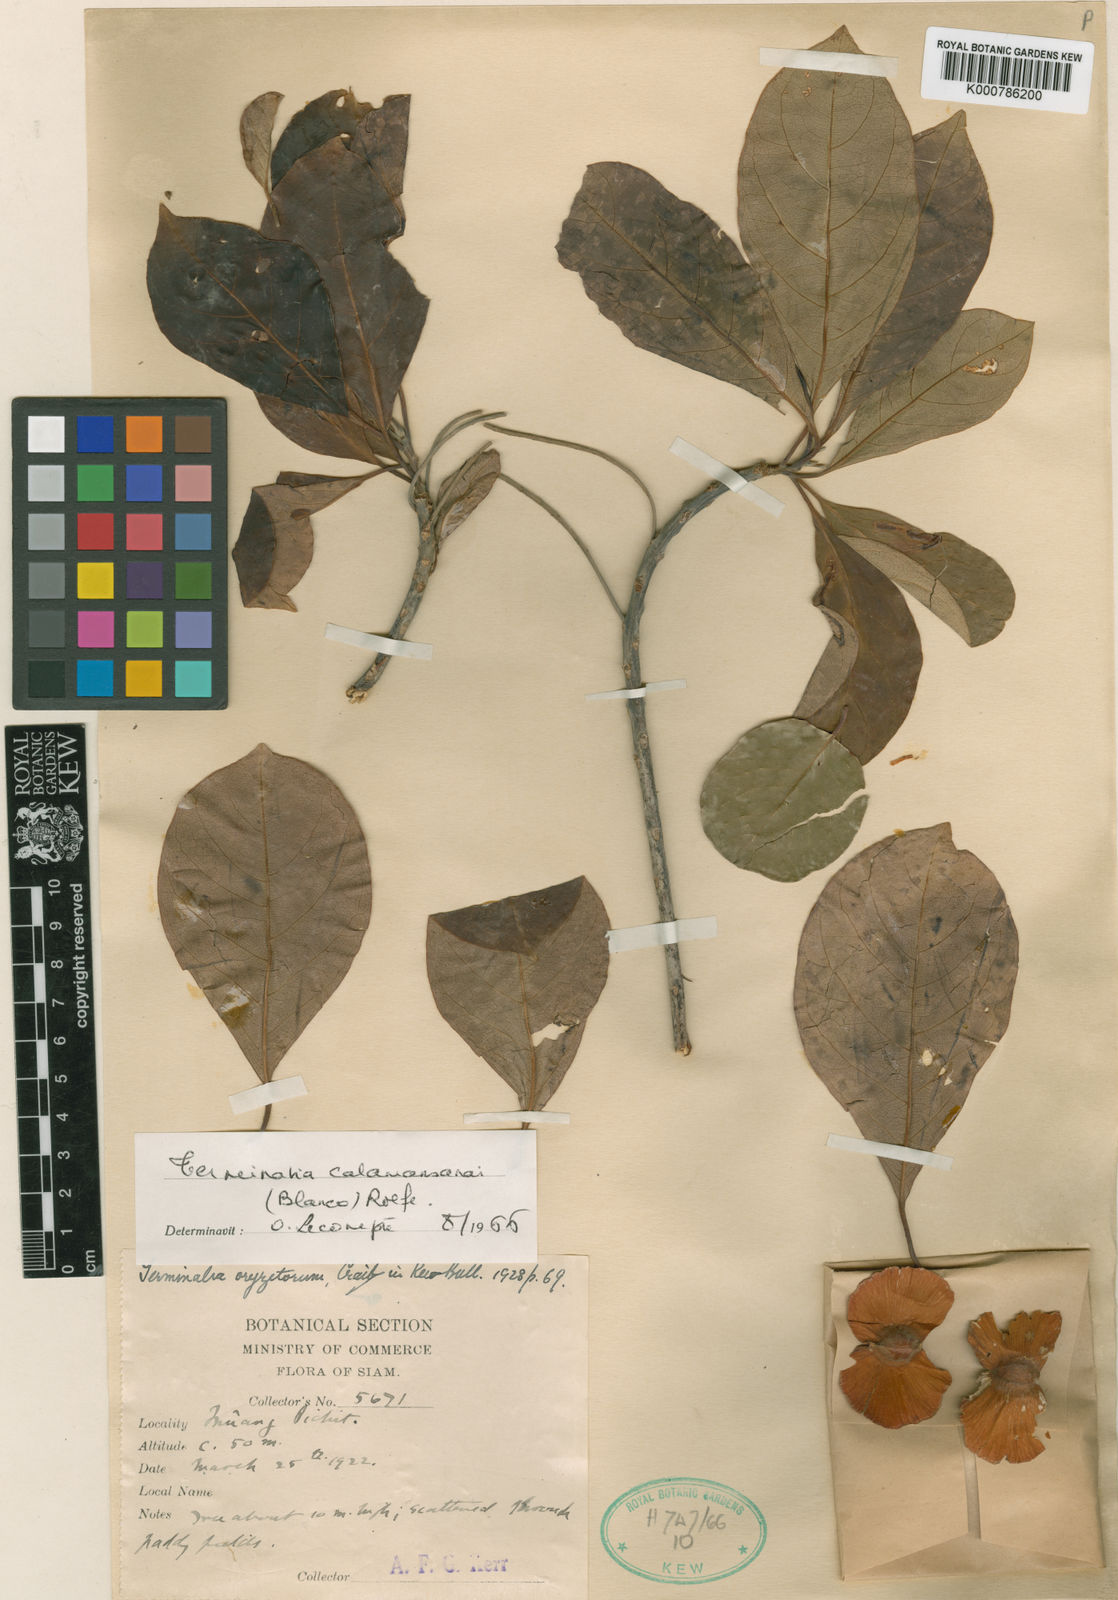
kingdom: Plantae
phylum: Tracheophyta
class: Magnoliopsida
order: Myrtales
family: Combretaceae
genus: Terminalia
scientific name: Terminalia calamansanai
